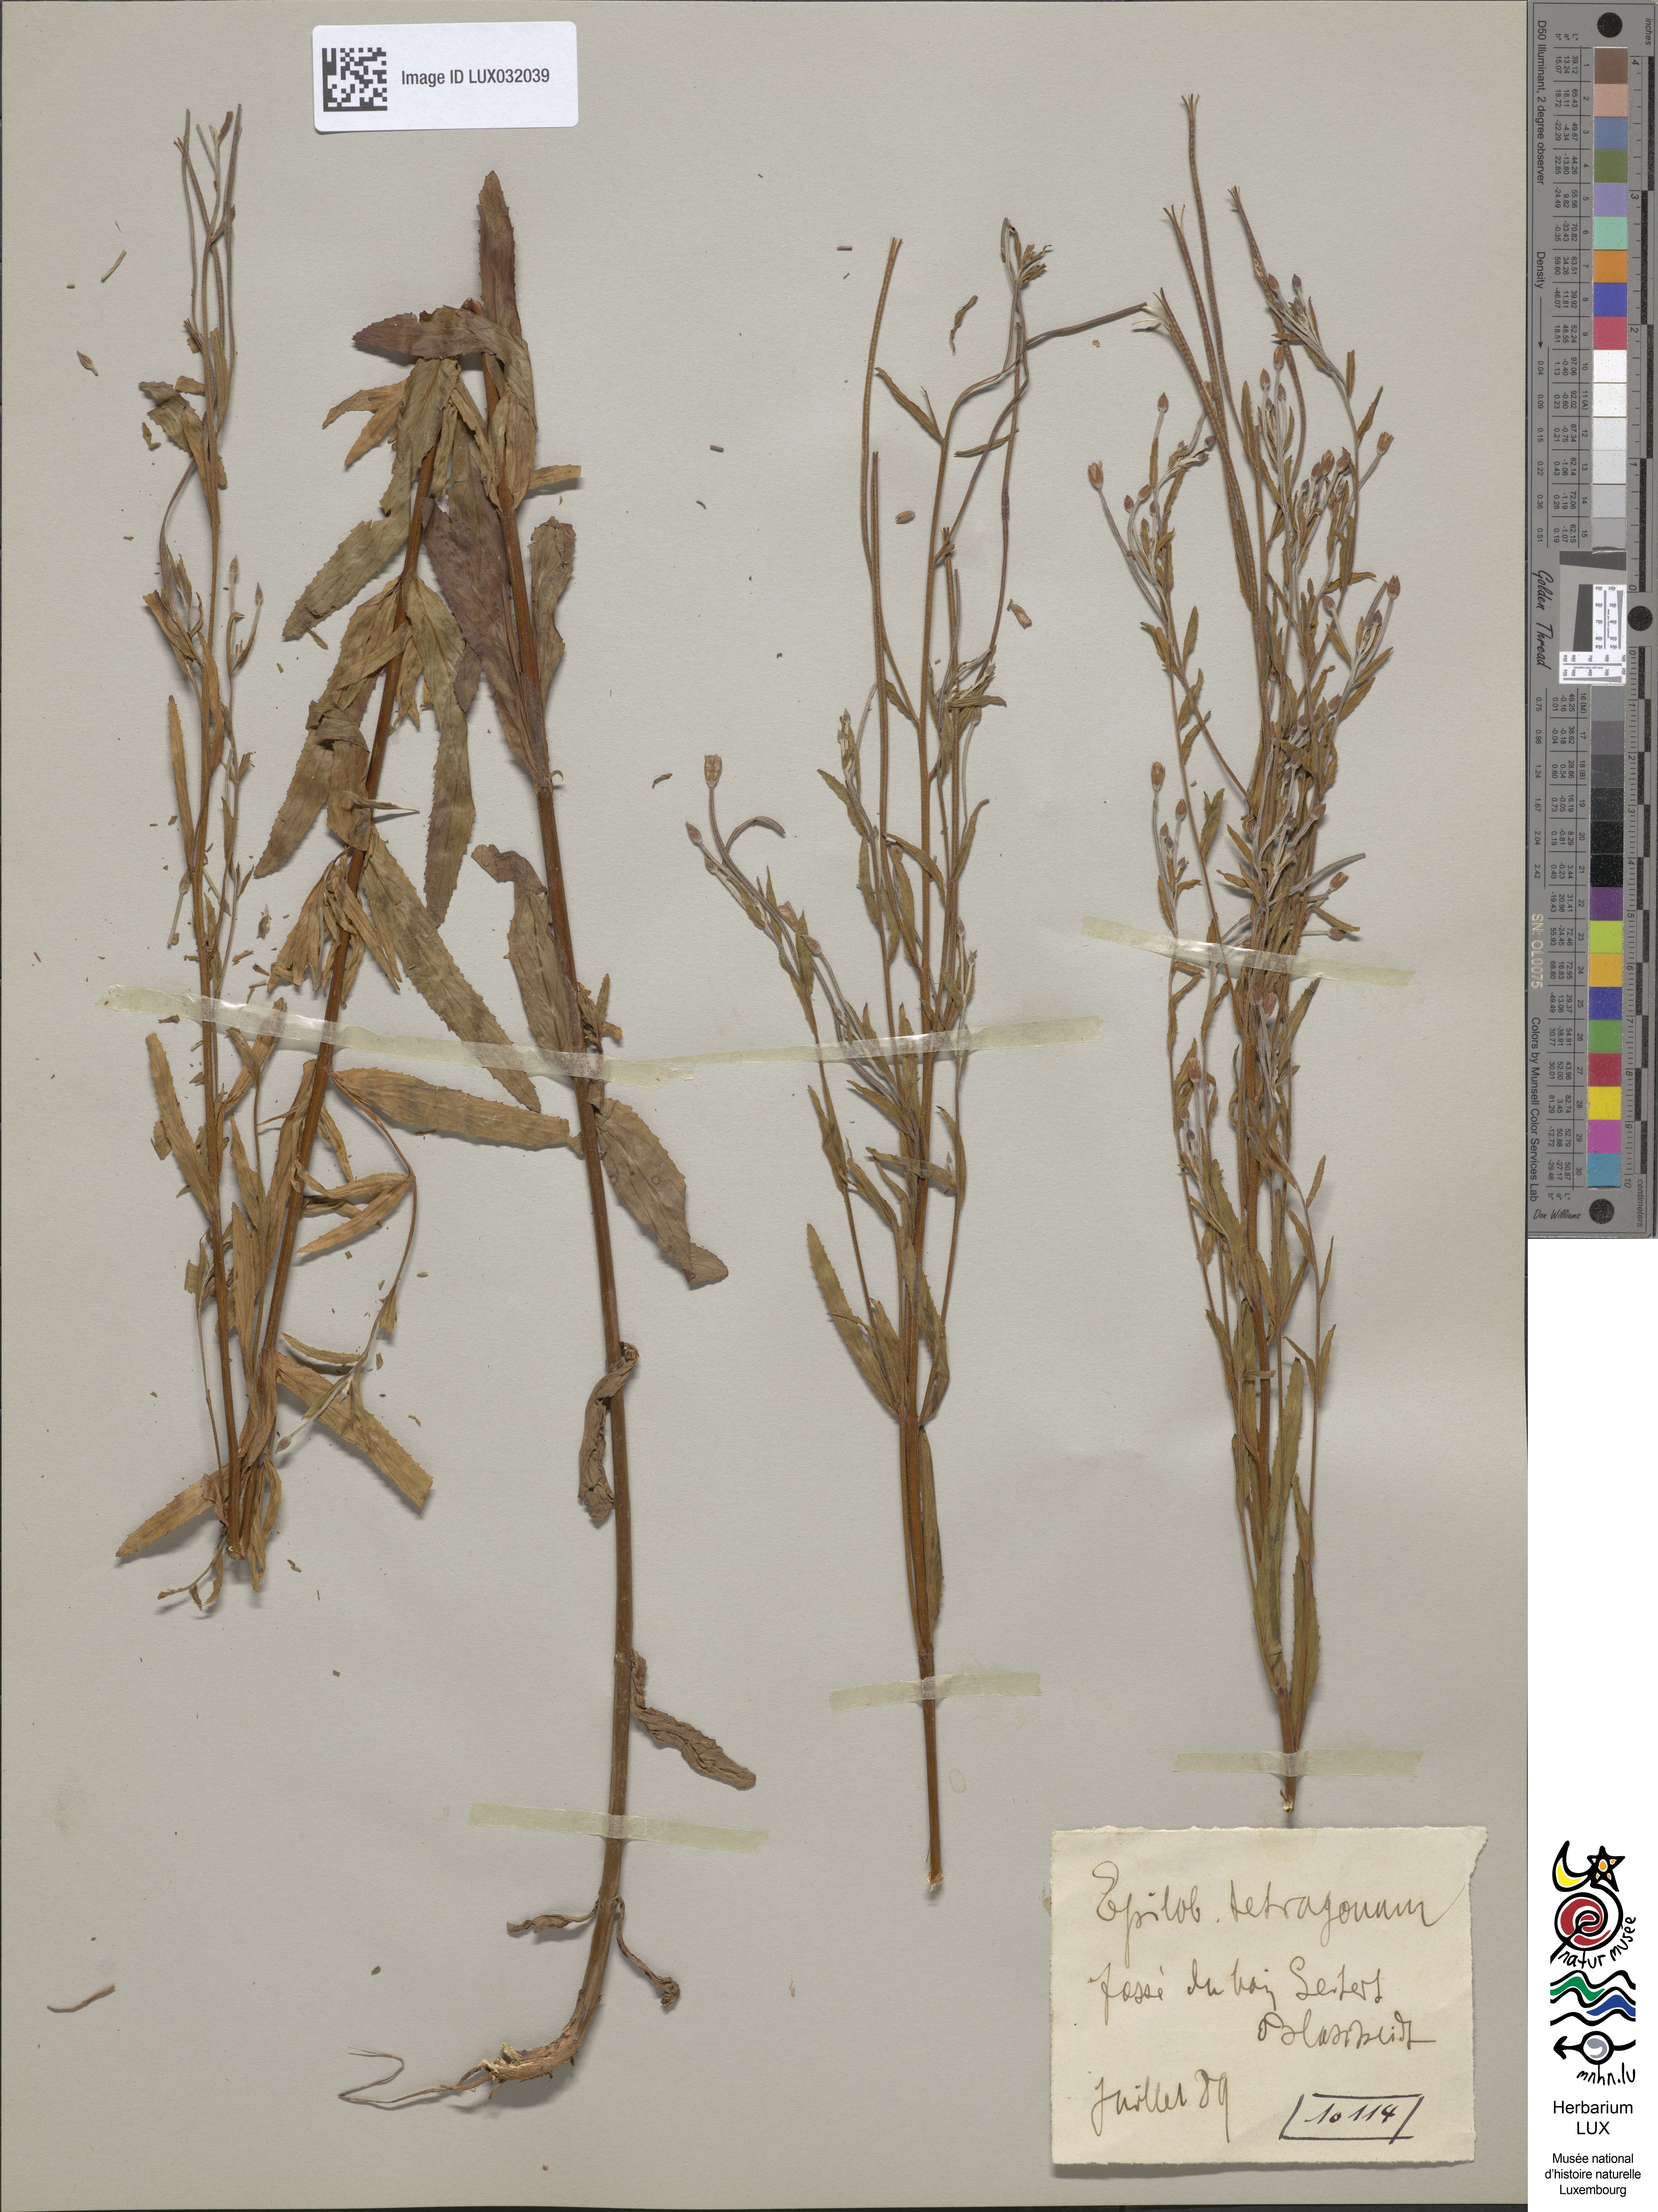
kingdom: Plantae
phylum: Tracheophyta
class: Magnoliopsida
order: Myrtales
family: Onagraceae
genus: Epilobium
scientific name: Epilobium tetragonum
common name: Square-stemmed willowherb
